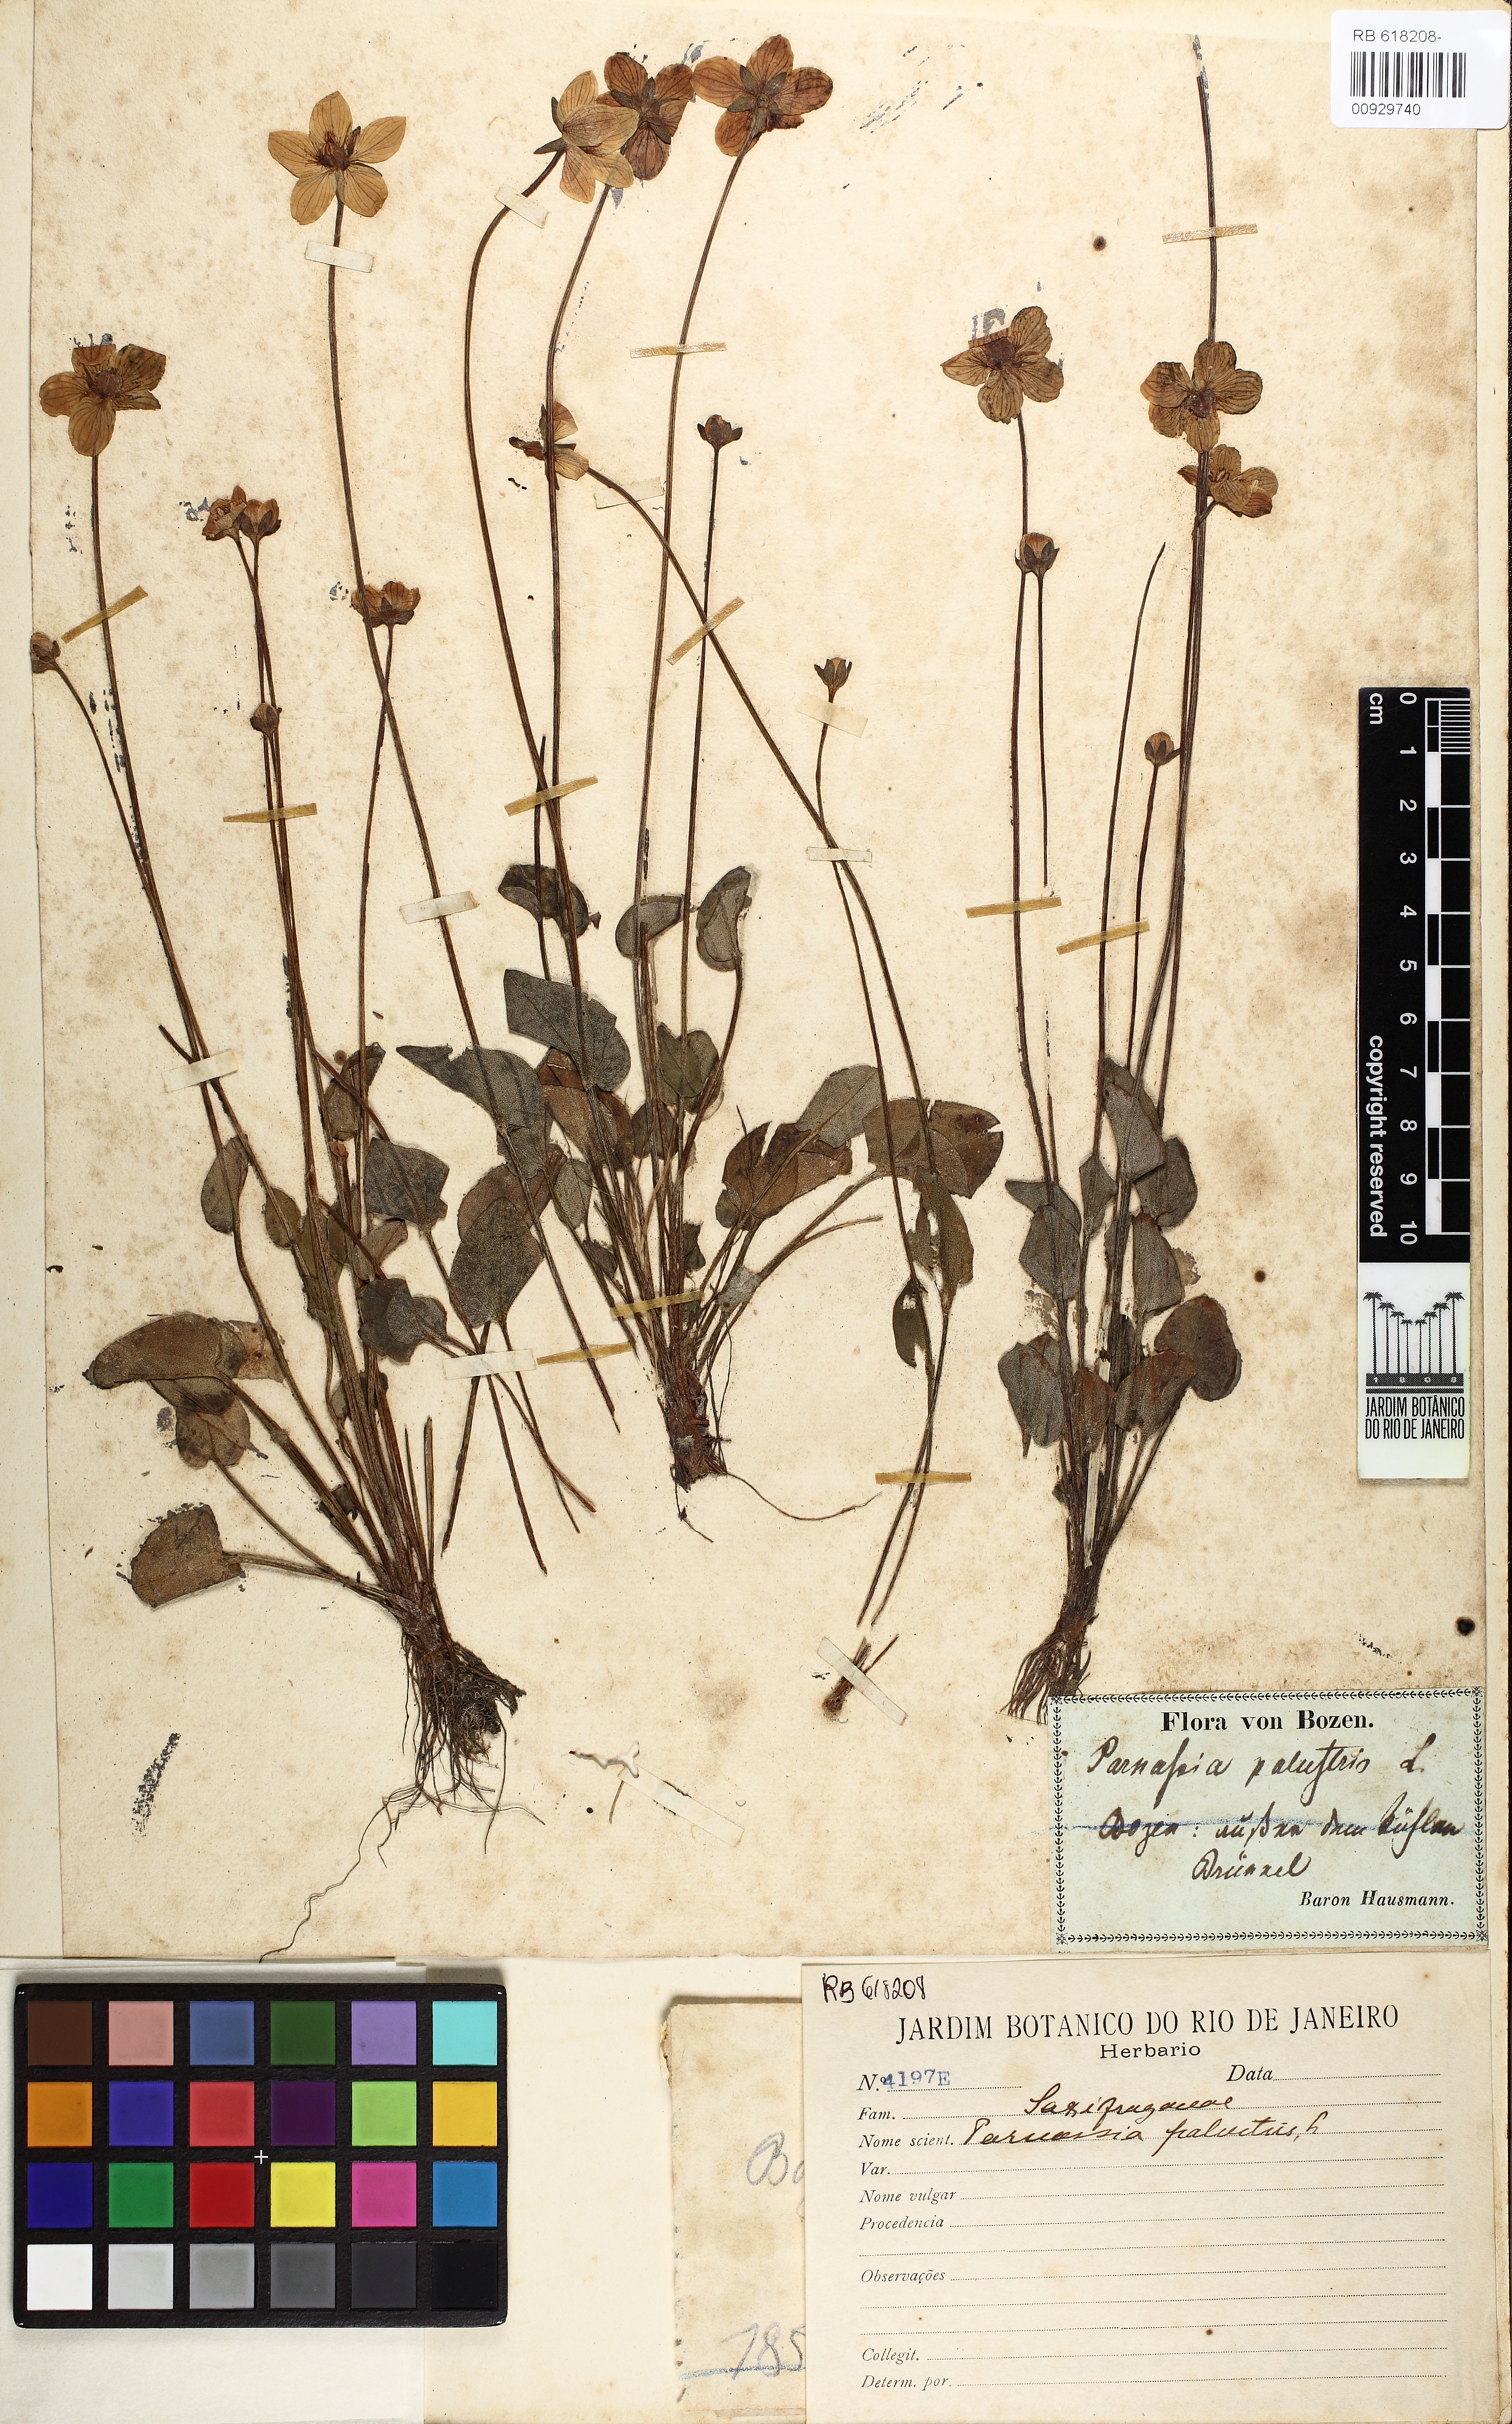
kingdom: Plantae
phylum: Tracheophyta
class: Magnoliopsida
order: Celastrales
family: Parnassiaceae
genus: Parnassia
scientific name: Parnassia palustris
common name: Grass-of-parnassus
